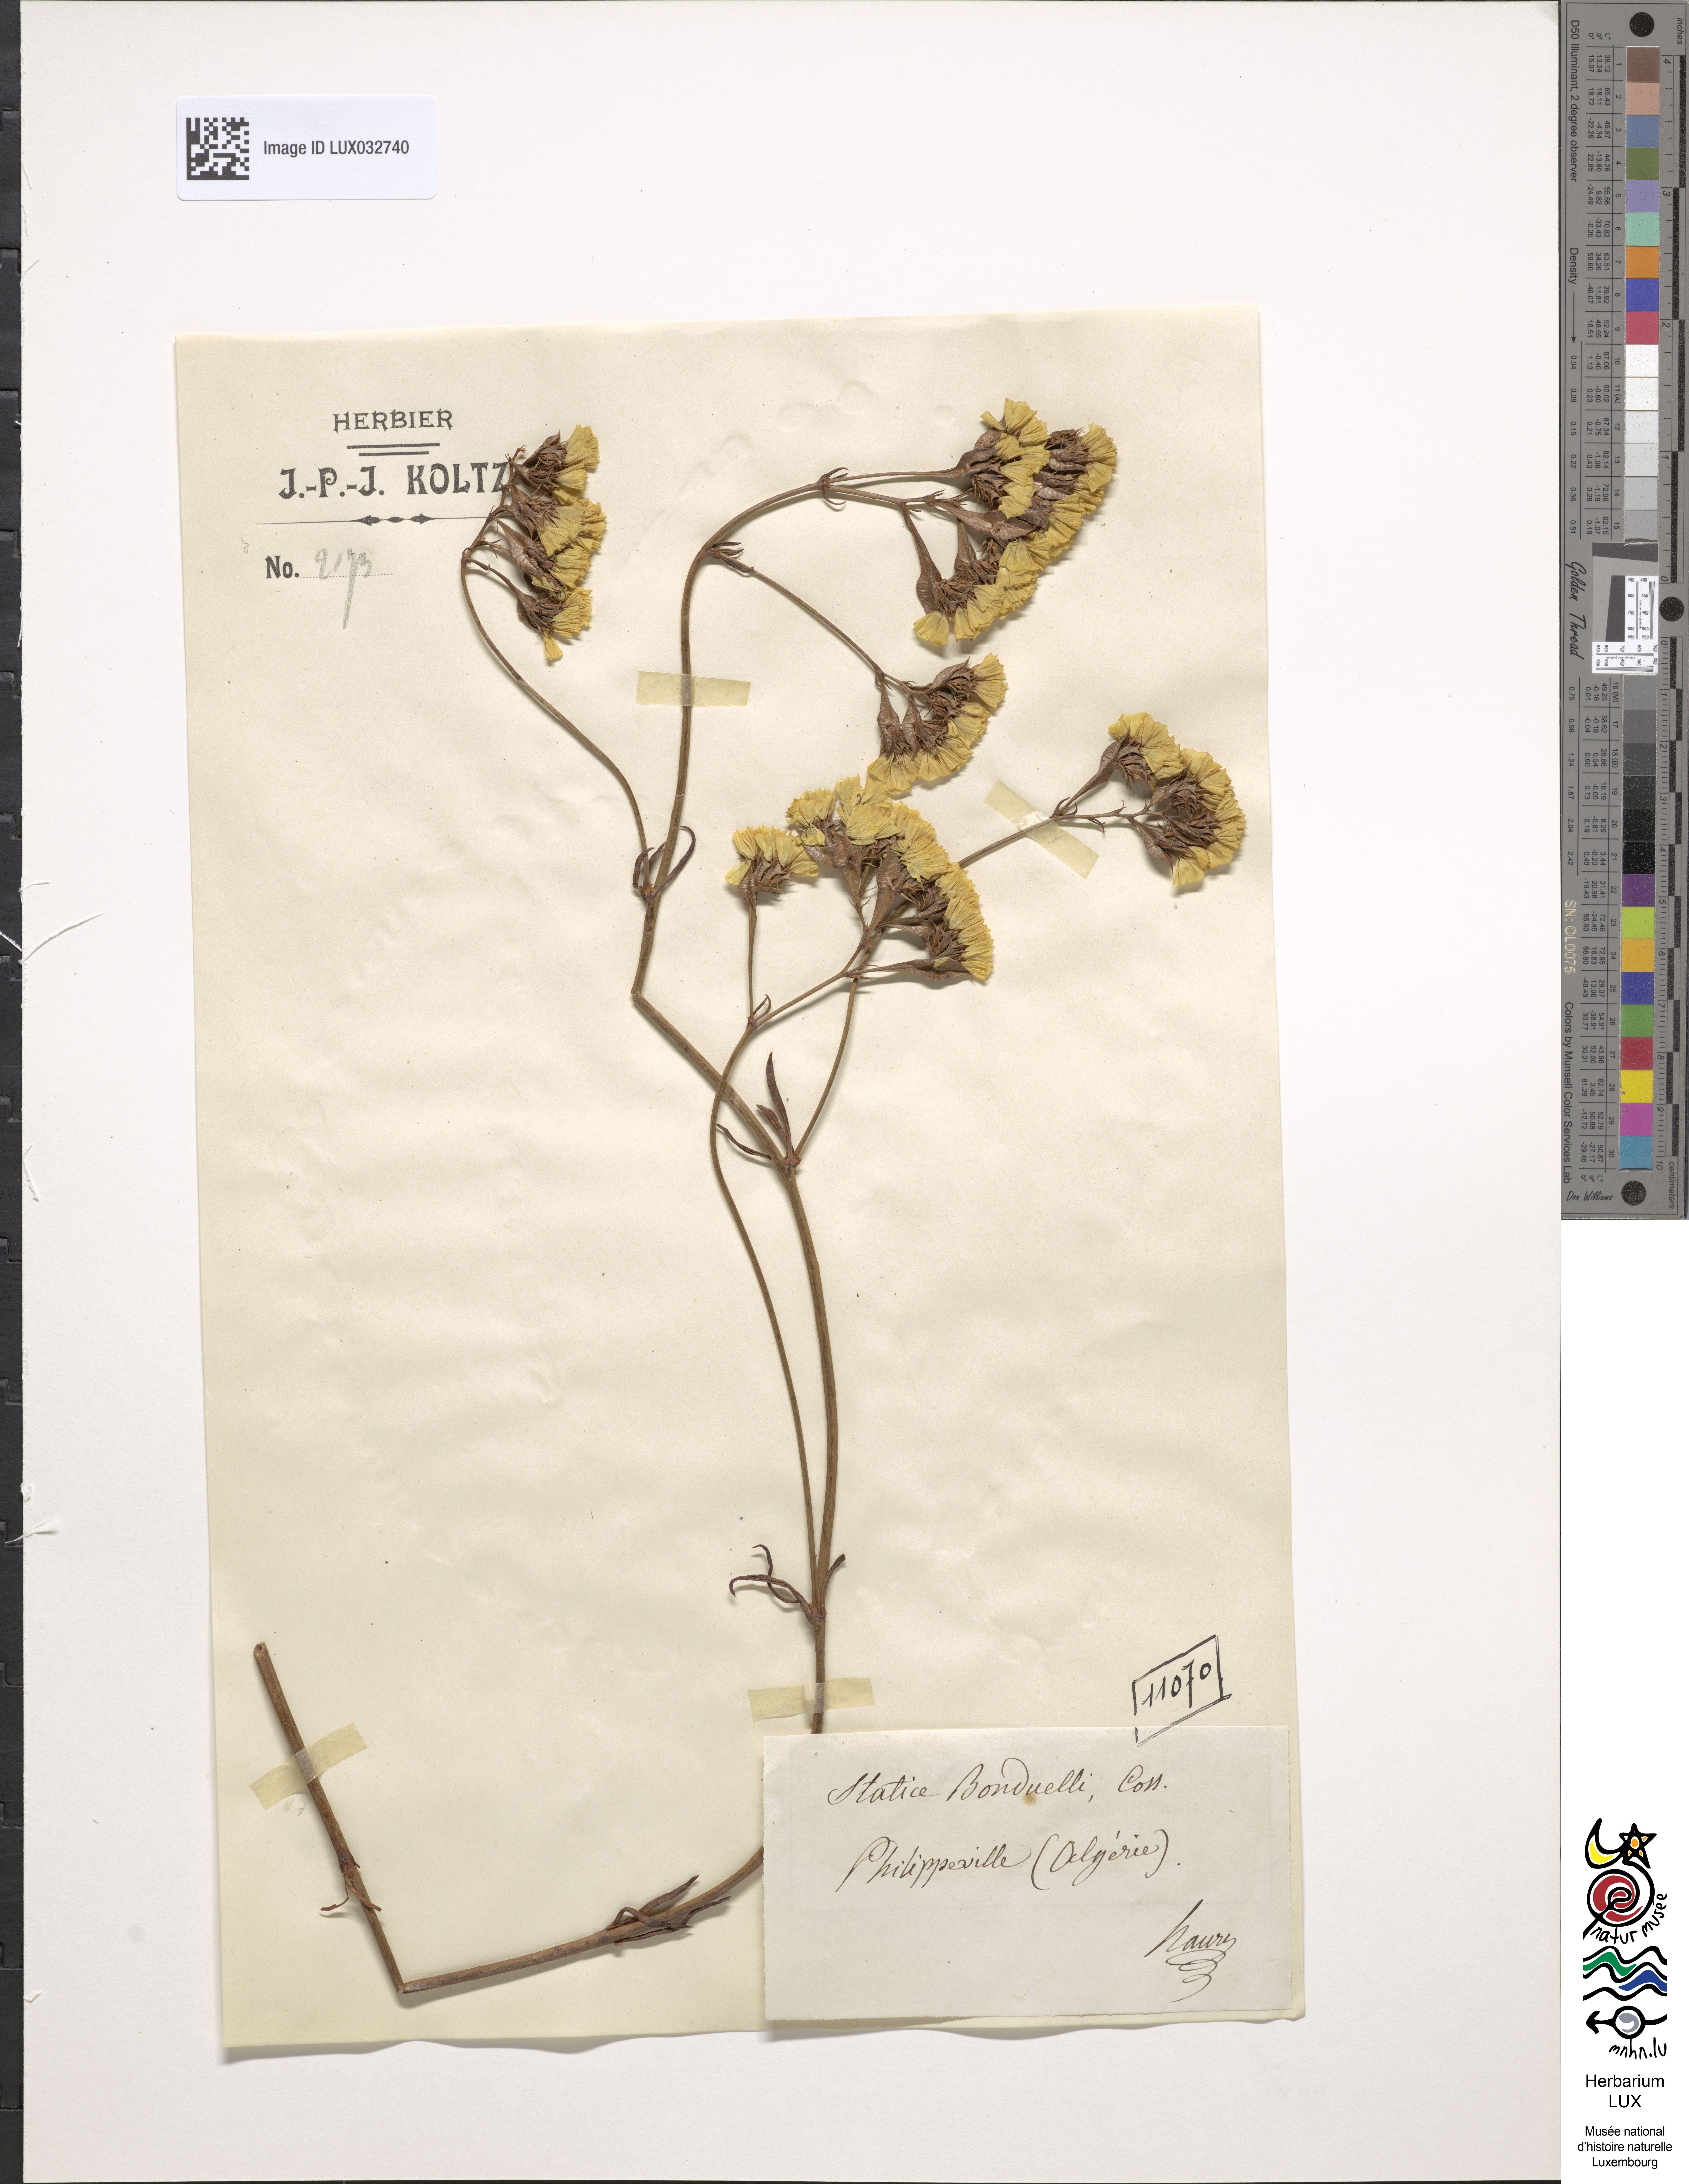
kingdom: Plantae
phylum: Tracheophyta
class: Magnoliopsida
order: Caryophyllales
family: Plumbaginaceae
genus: Limonium
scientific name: Limonium bonduellei
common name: Algerian statice
